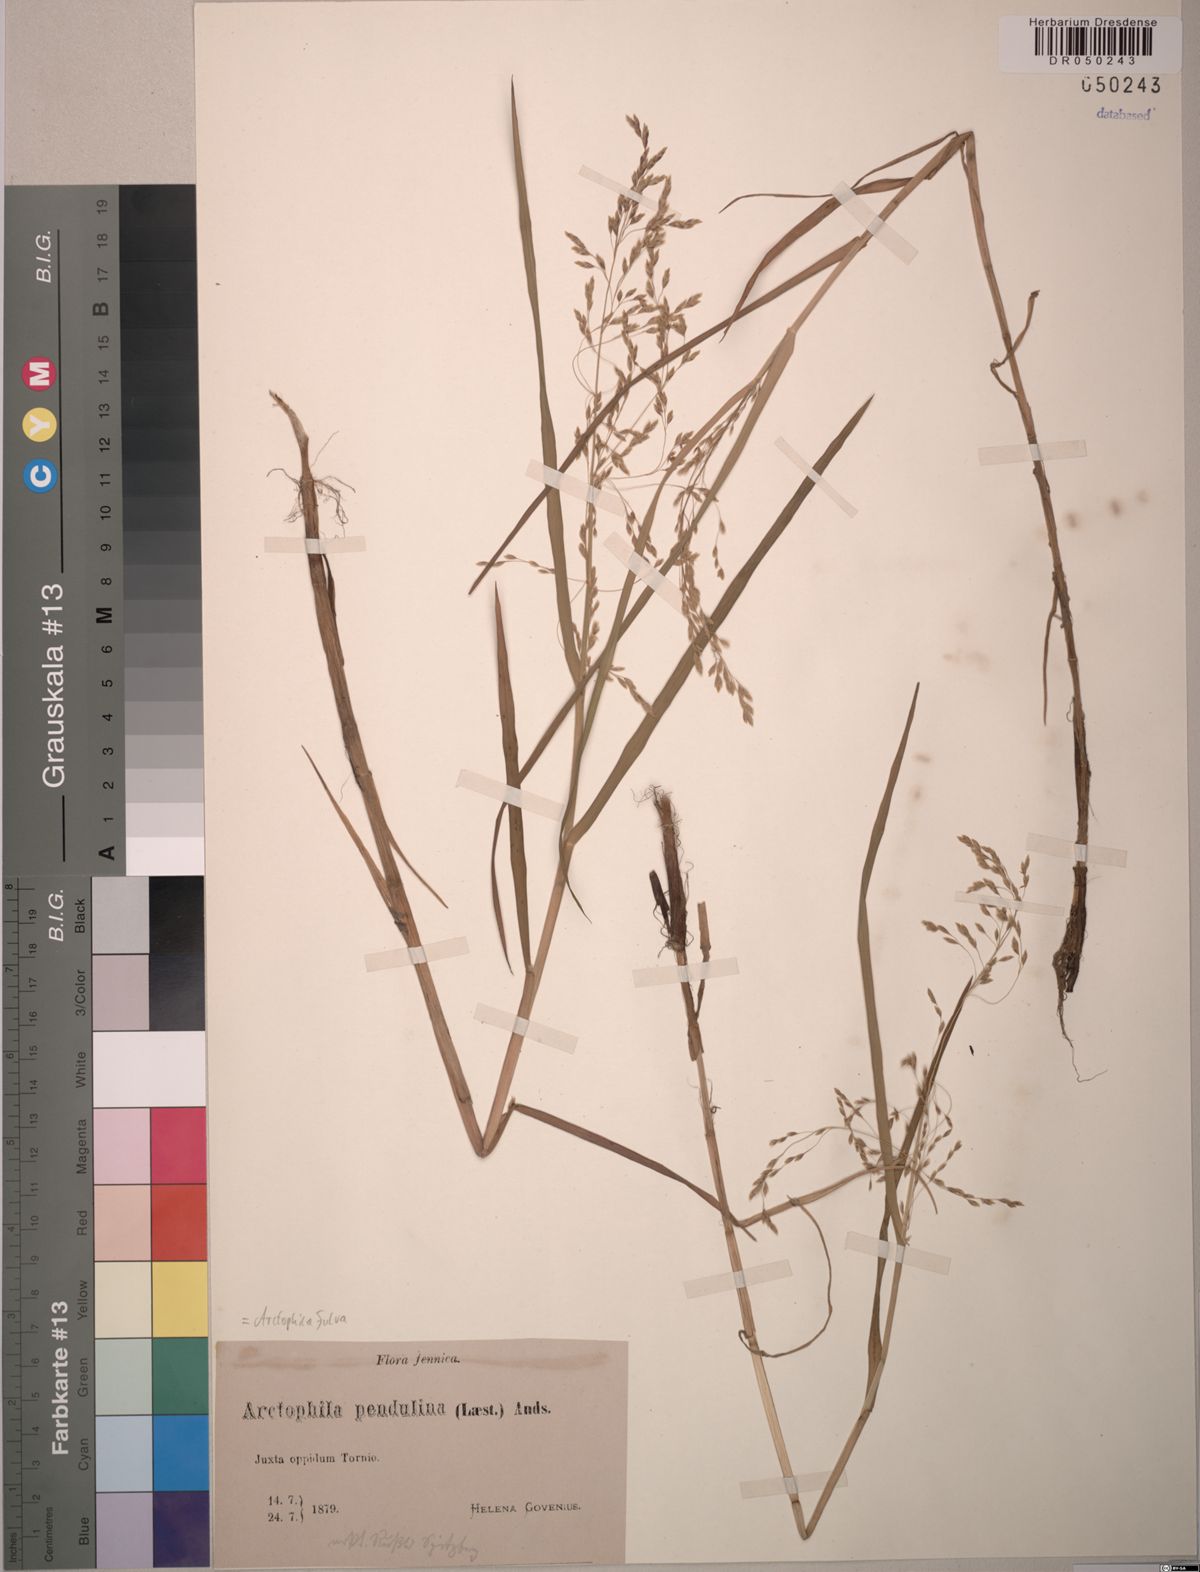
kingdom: Plantae
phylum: Tracheophyta
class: Liliopsida
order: Poales
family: Poaceae
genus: Dupontia
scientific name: Dupontia fulva
